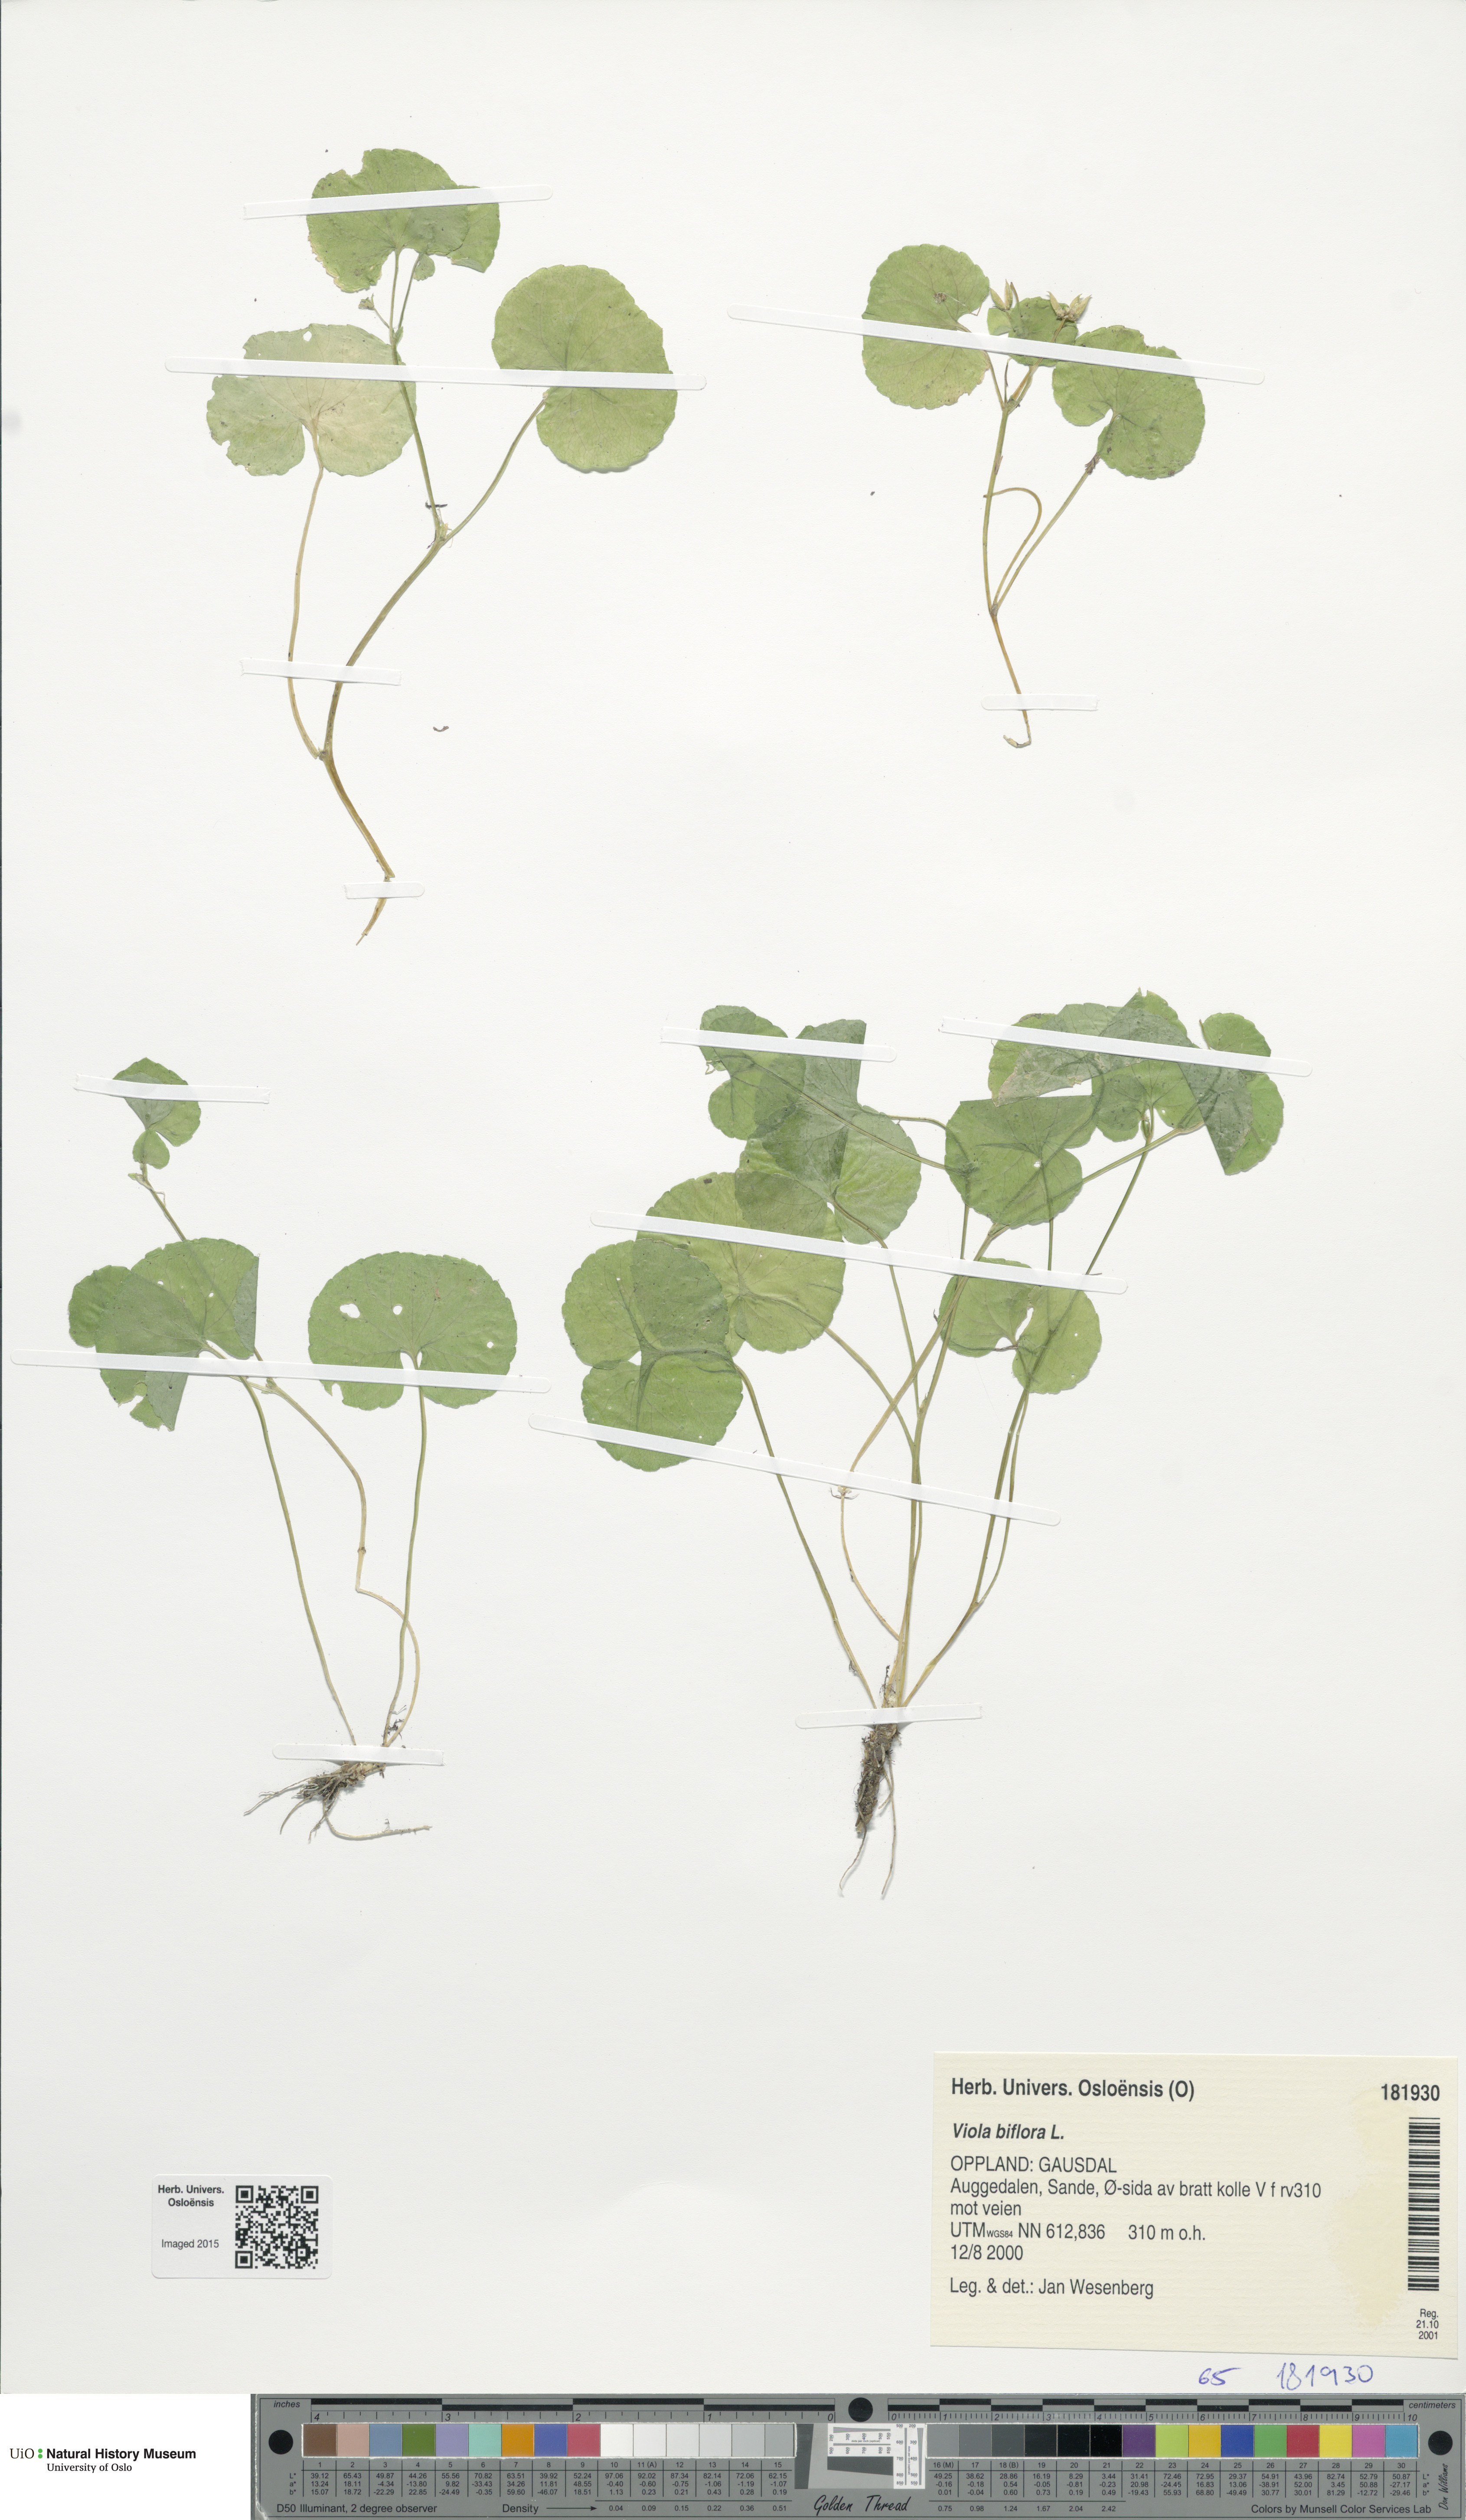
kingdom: Plantae
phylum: Tracheophyta
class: Magnoliopsida
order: Malpighiales
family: Violaceae
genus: Viola
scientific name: Viola biflora
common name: Alpine yellow violet
